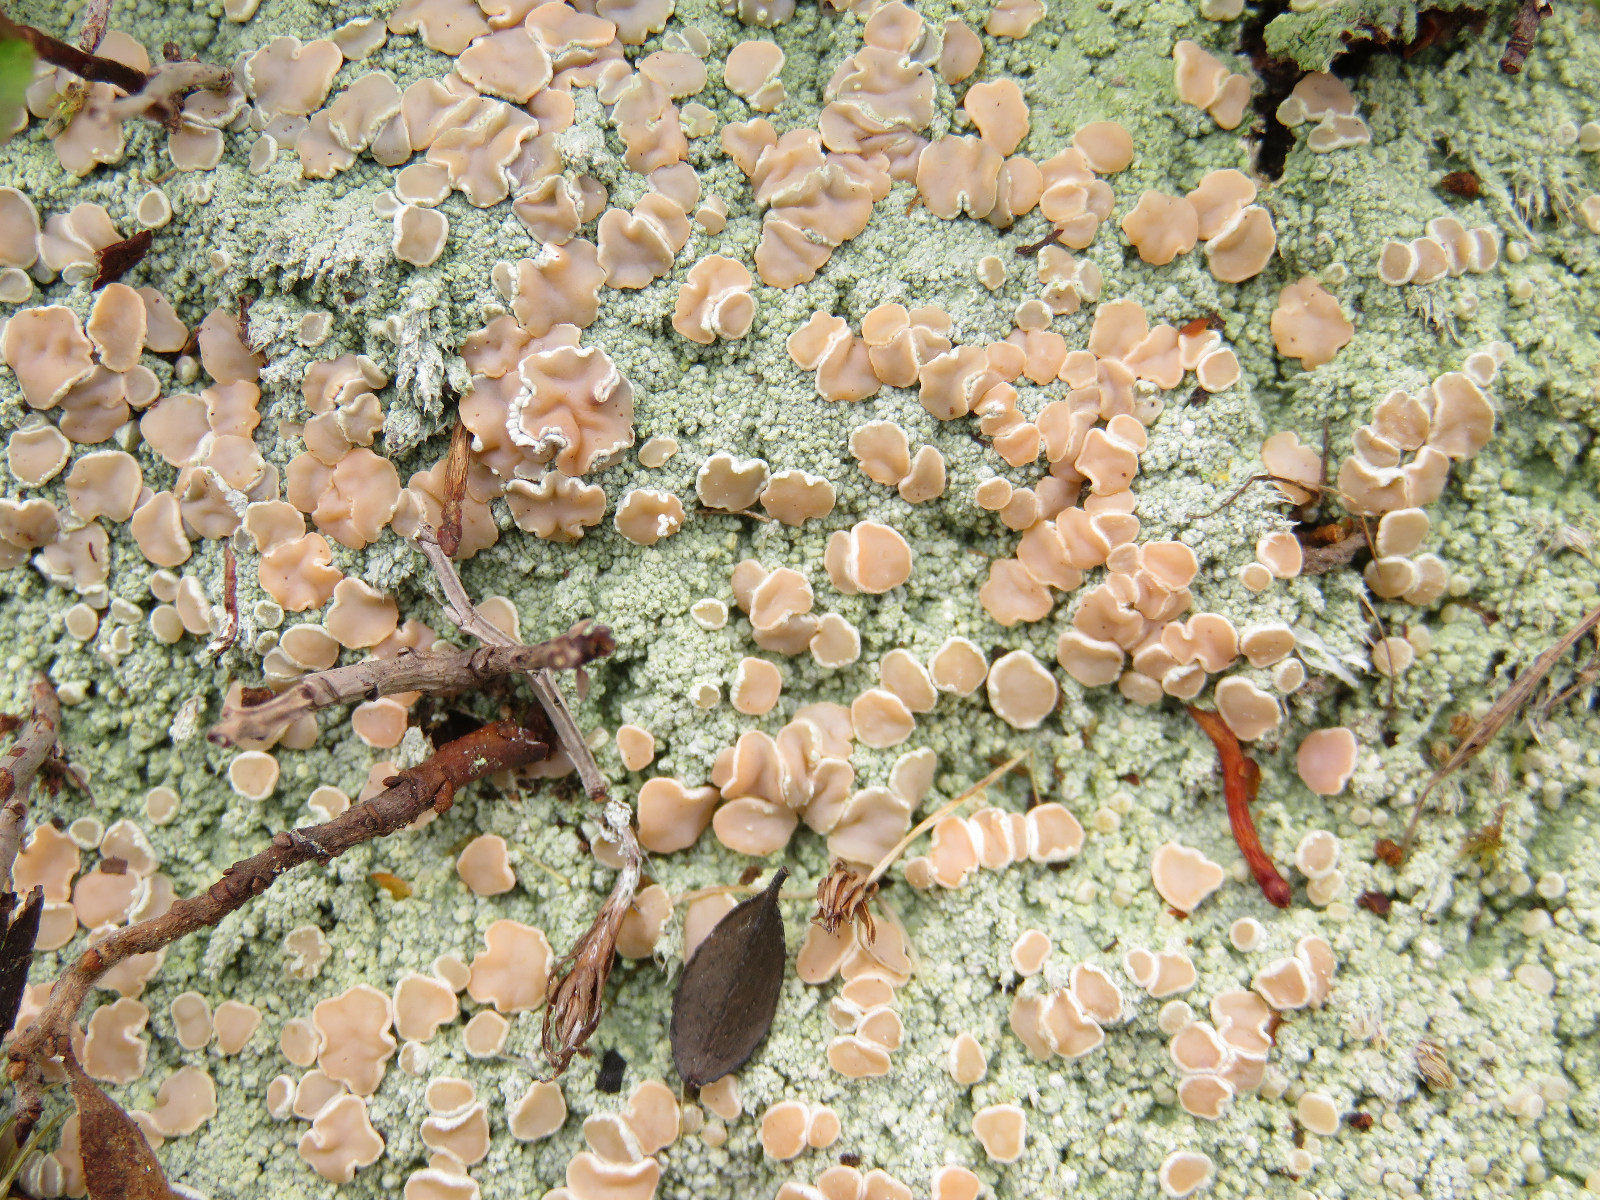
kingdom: Fungi
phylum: Ascomycota
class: Lecanoromycetes
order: Pertusariales
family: Icmadophilaceae
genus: Icmadophila
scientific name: Icmadophila ericetorum
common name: blegrød tørvelav
